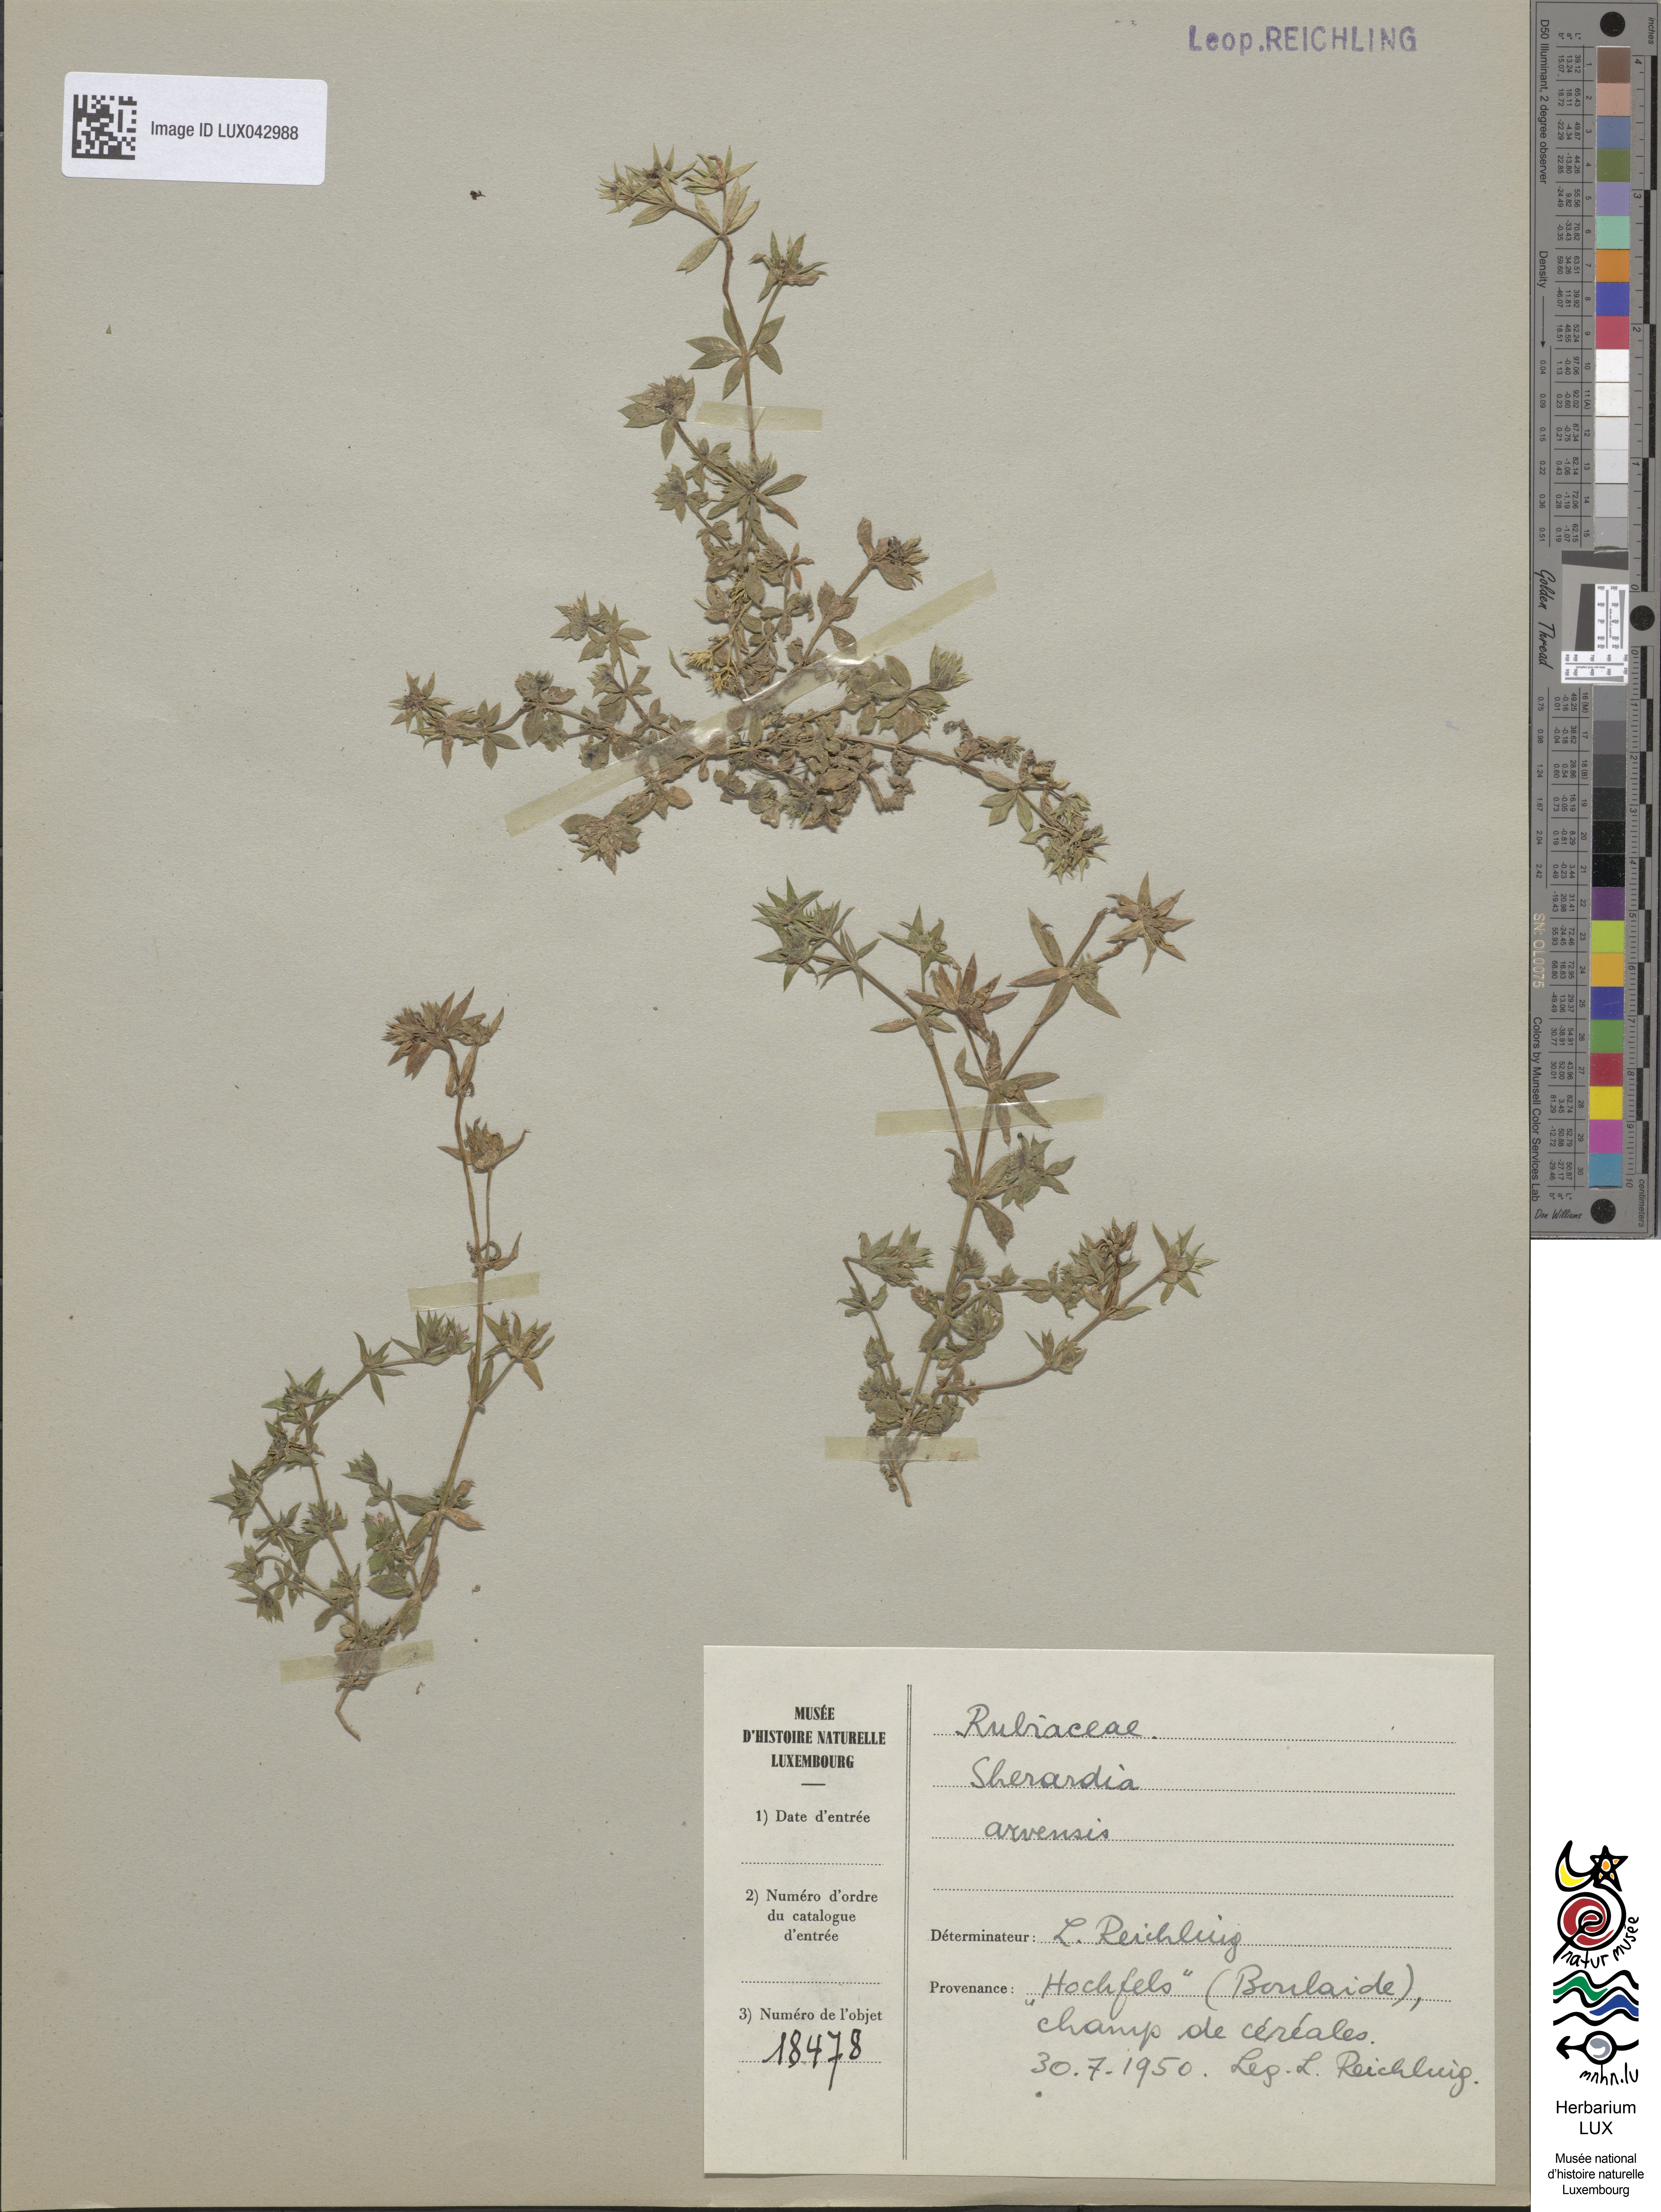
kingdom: Plantae
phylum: Tracheophyta
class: Magnoliopsida
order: Gentianales
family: Rubiaceae
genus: Sherardia
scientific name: Sherardia arvensis
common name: Field madder
